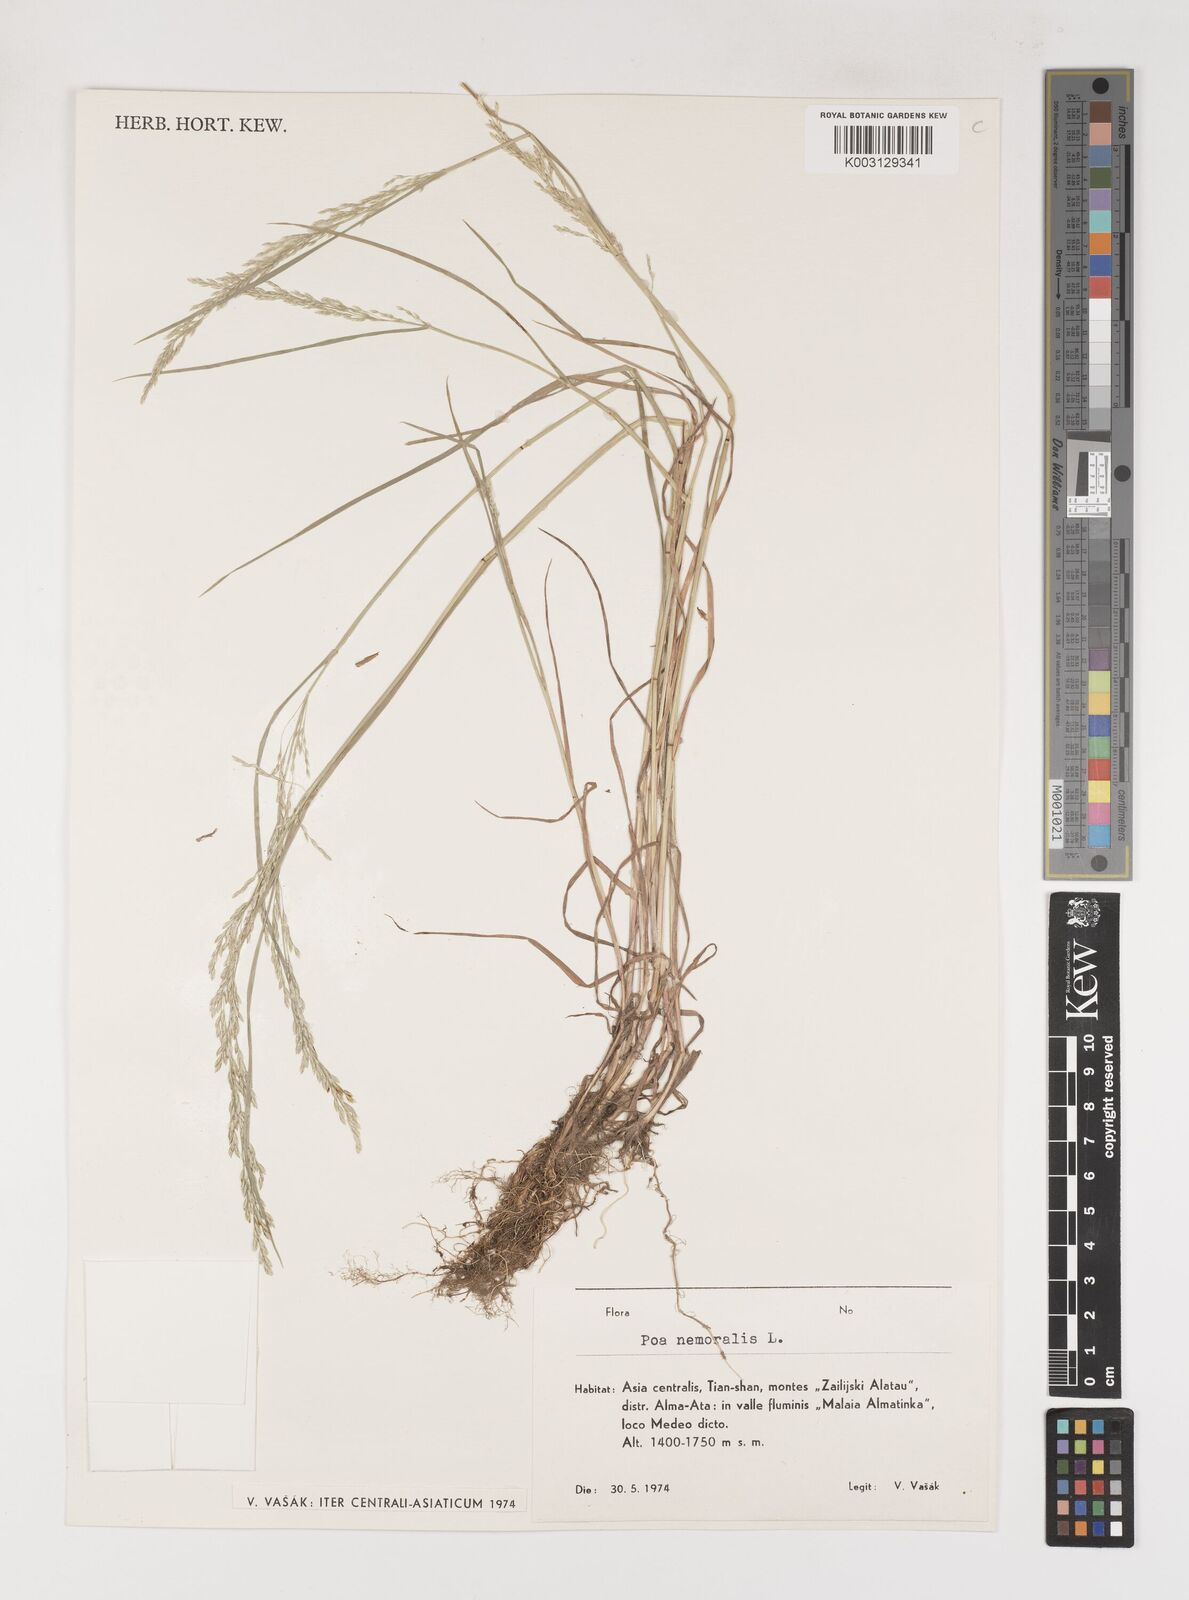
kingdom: Plantae
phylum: Tracheophyta
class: Liliopsida
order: Poales
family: Poaceae
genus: Poa
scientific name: Poa nemoralis
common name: Wood bluegrass
